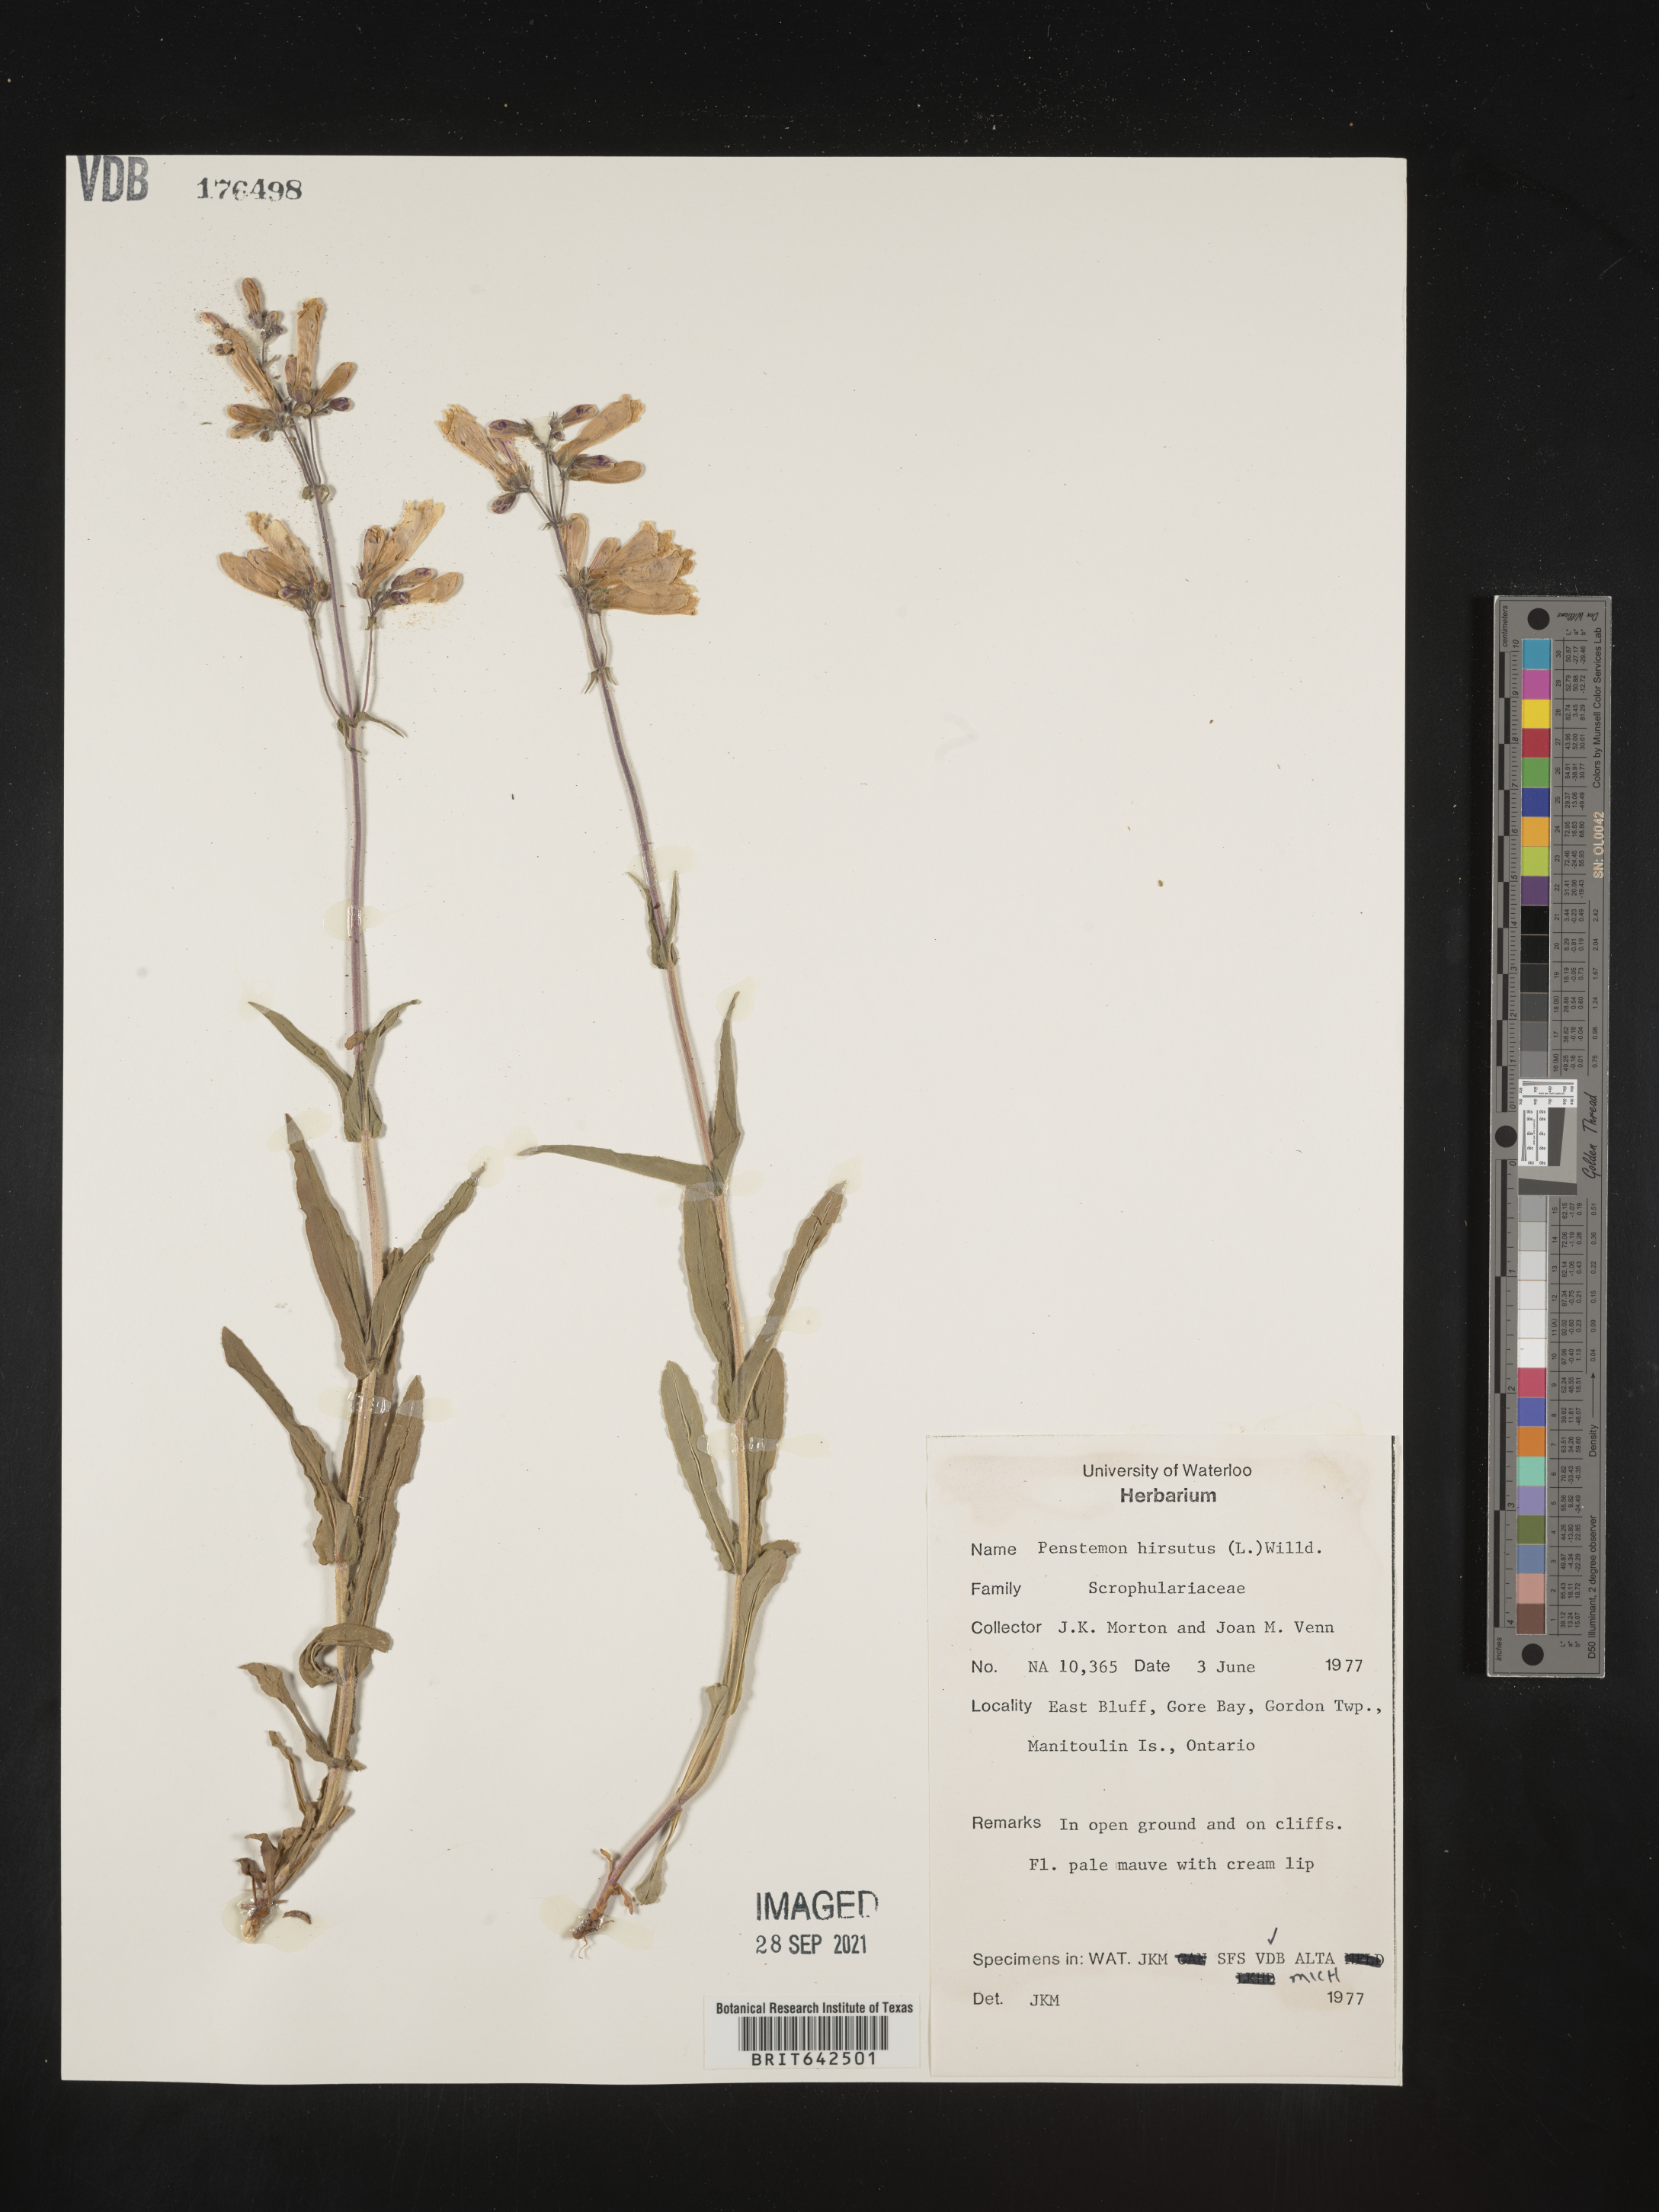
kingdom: Plantae
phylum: Tracheophyta
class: Magnoliopsida
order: Lamiales
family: Plantaginaceae
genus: Penstemon
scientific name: Penstemon
